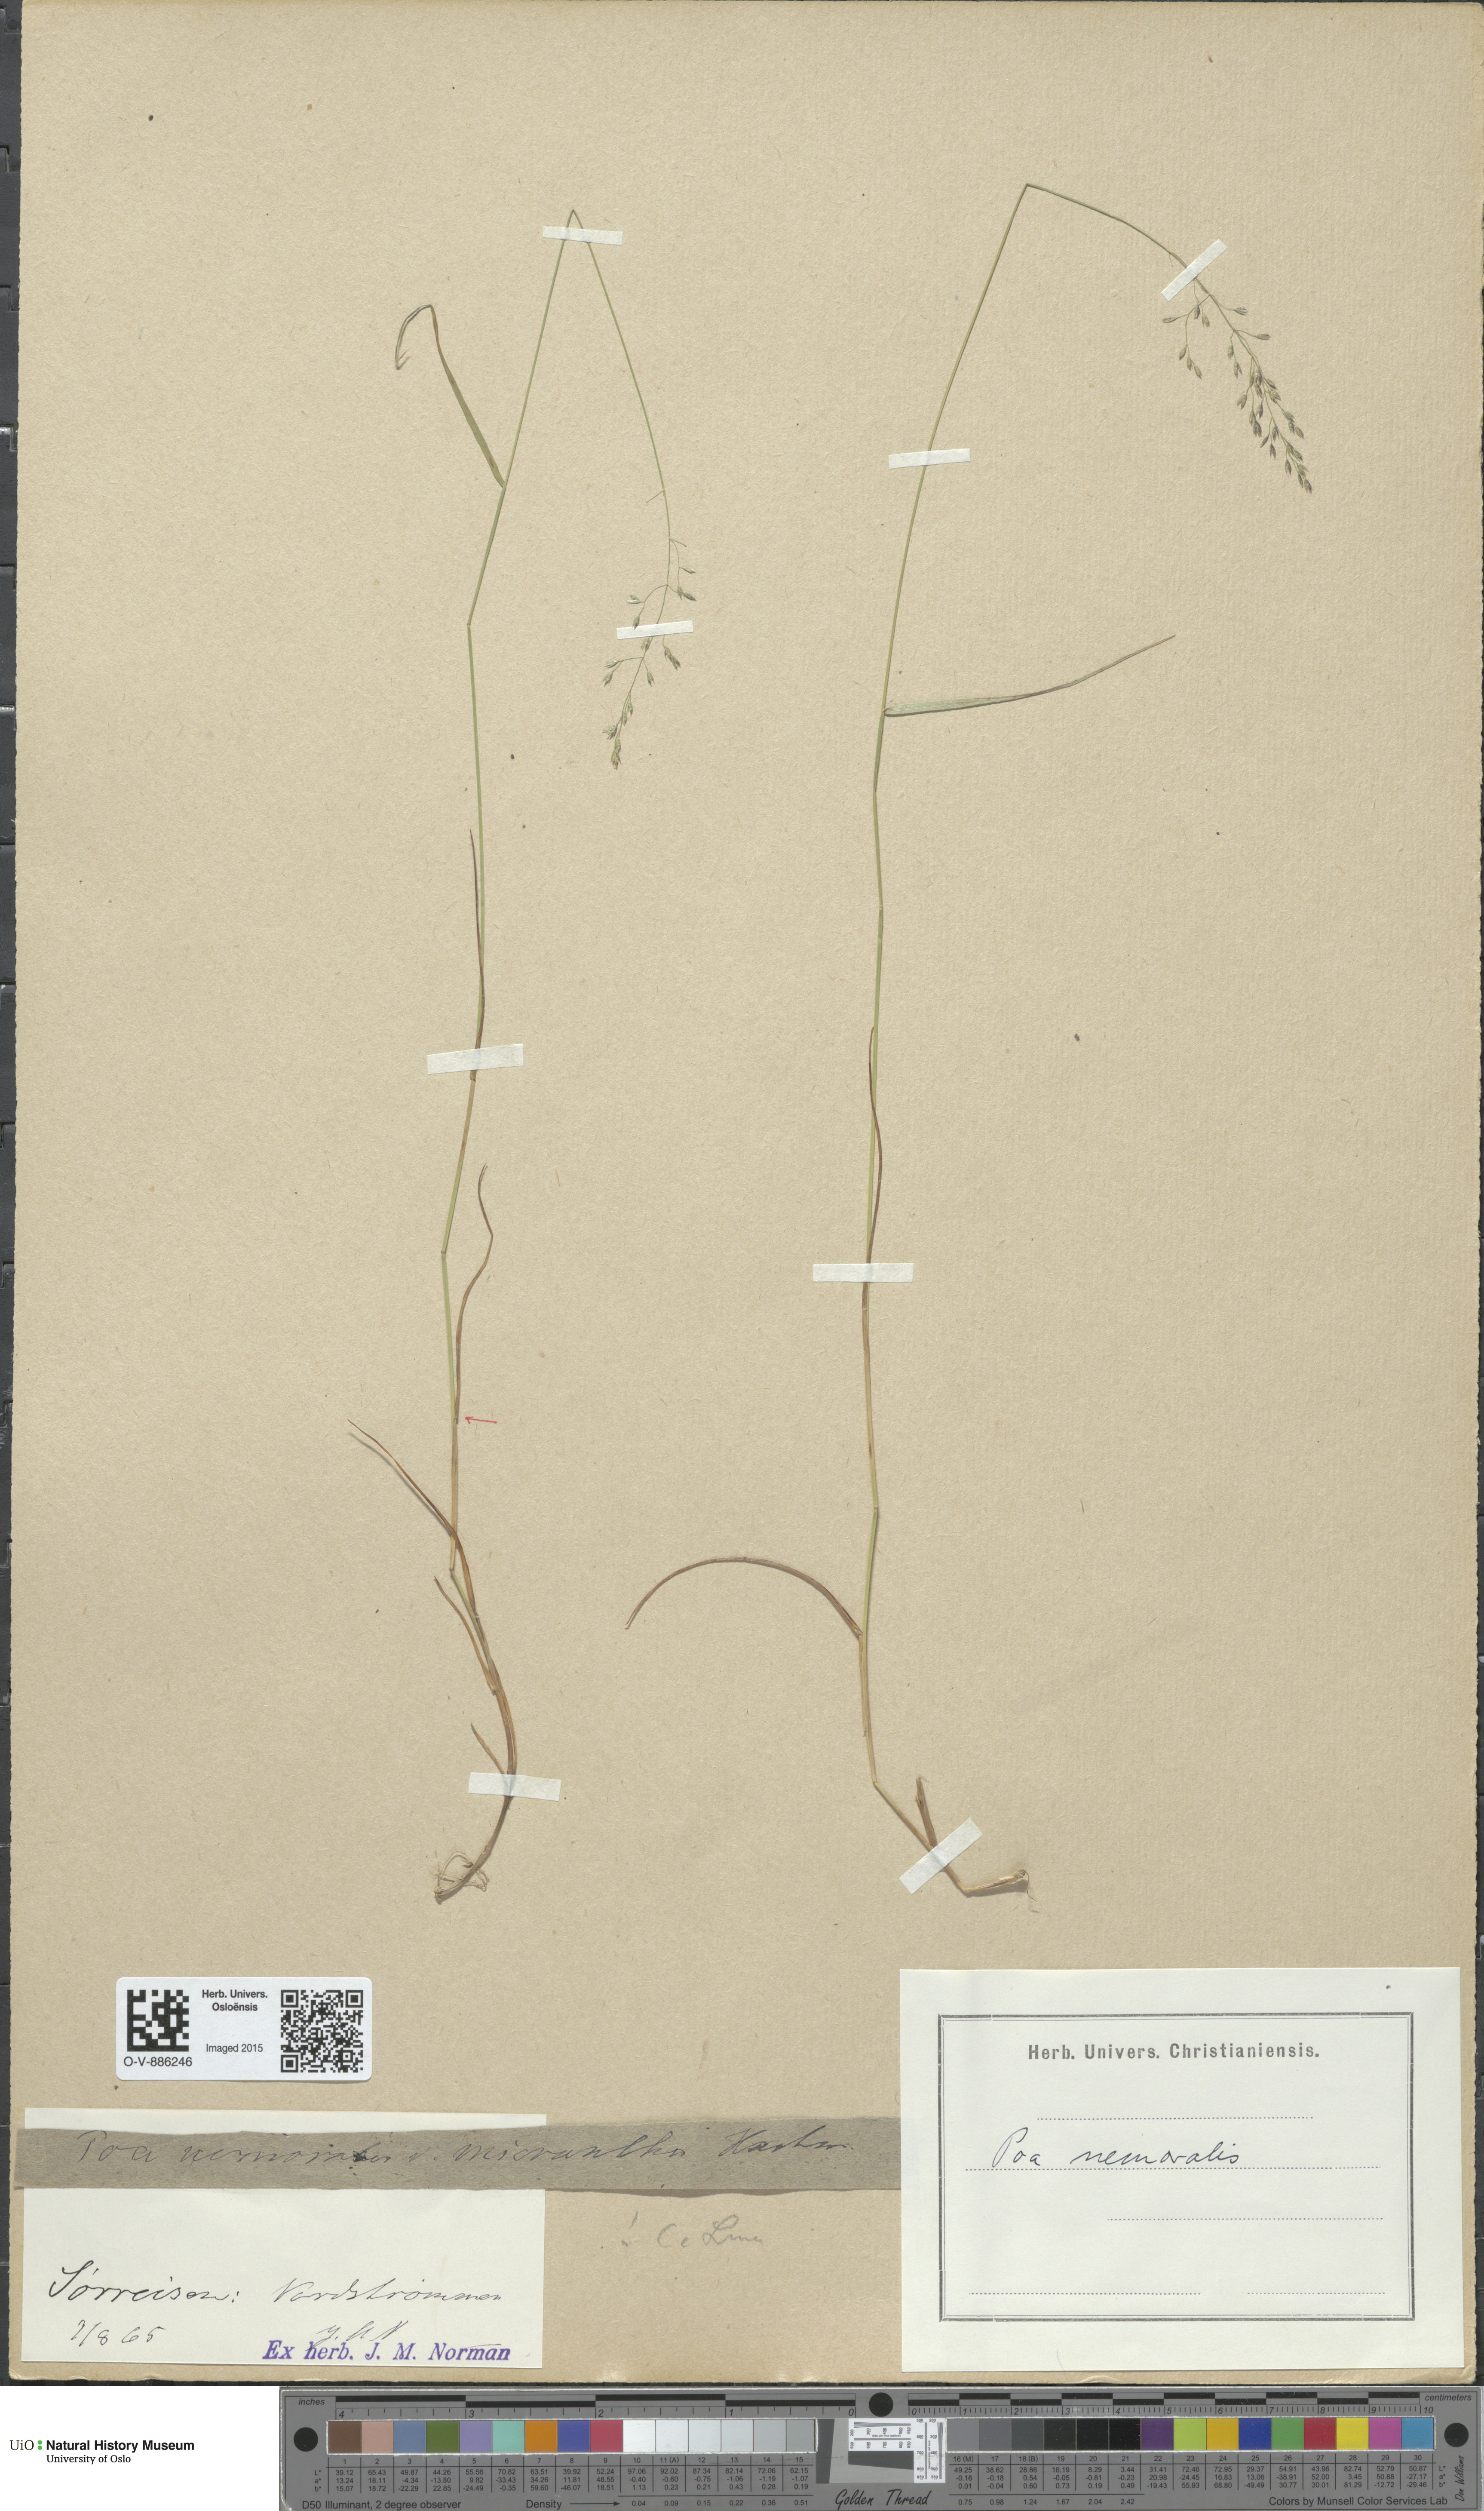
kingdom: Plantae
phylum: Tracheophyta
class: Liliopsida
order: Poales
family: Poaceae
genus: Poa
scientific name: Poa nemoralis
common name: Wood bluegrass
